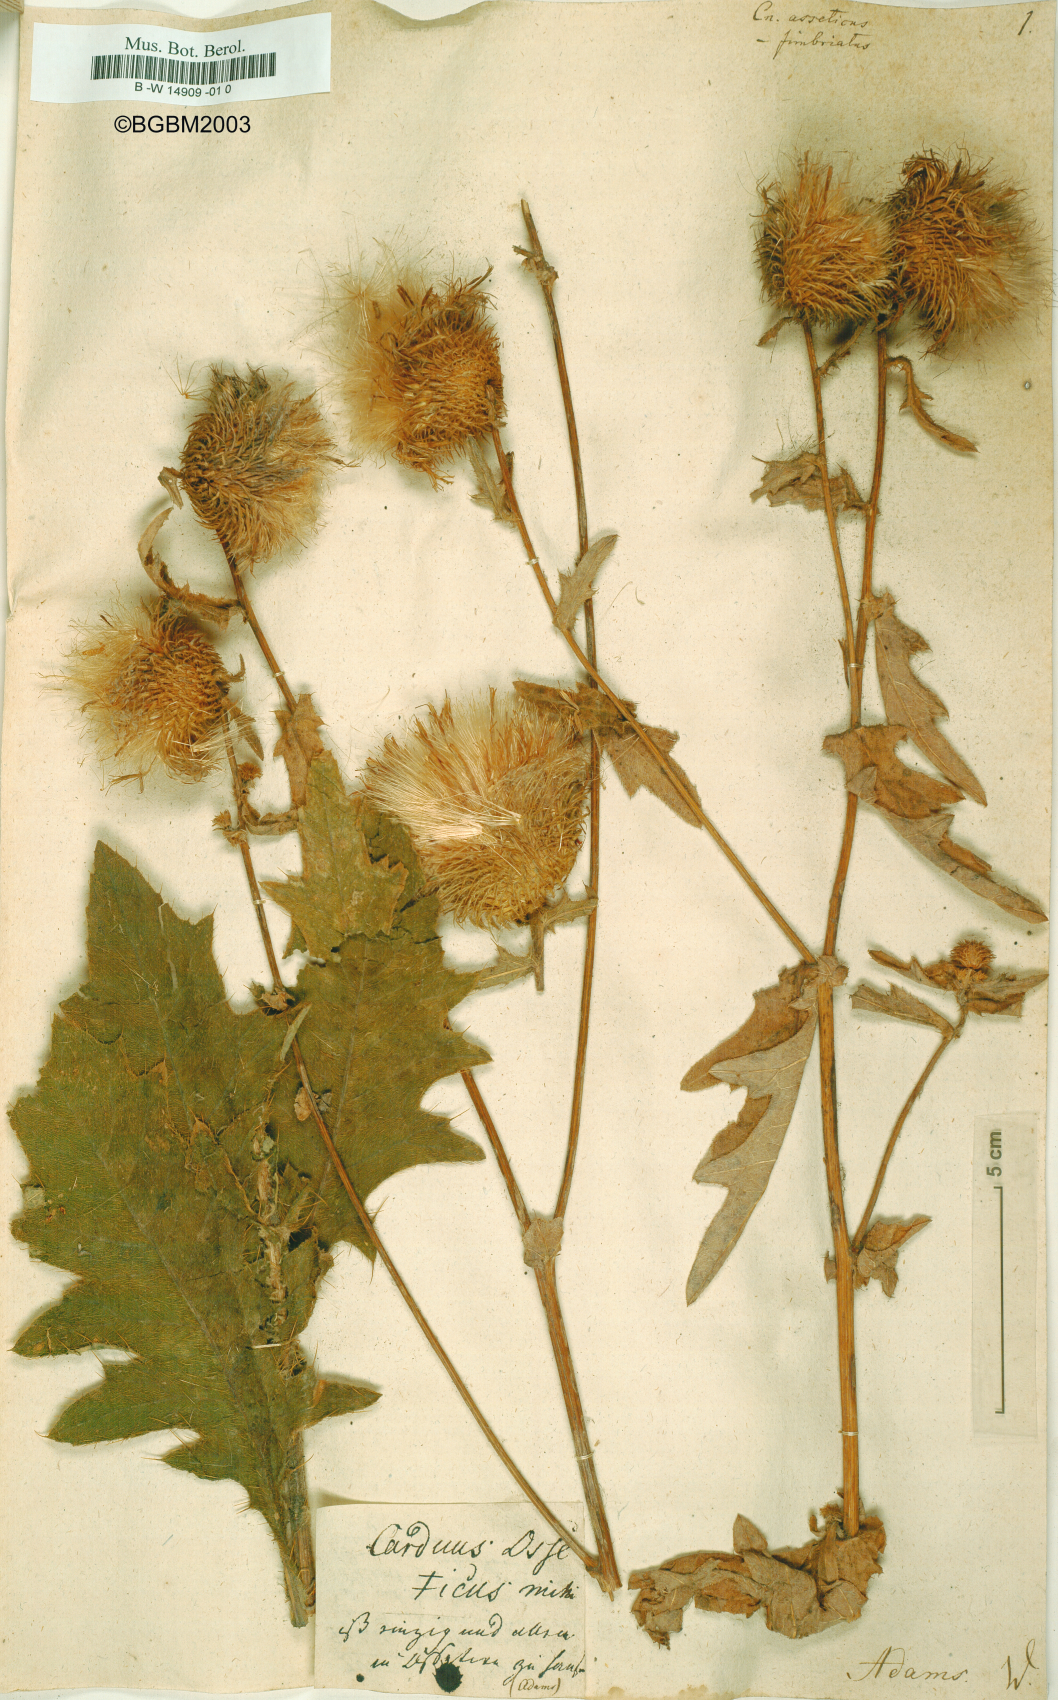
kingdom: Plantae
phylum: Tracheophyta
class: Magnoliopsida
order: Asterales
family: Asteraceae
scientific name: Asteraceae
